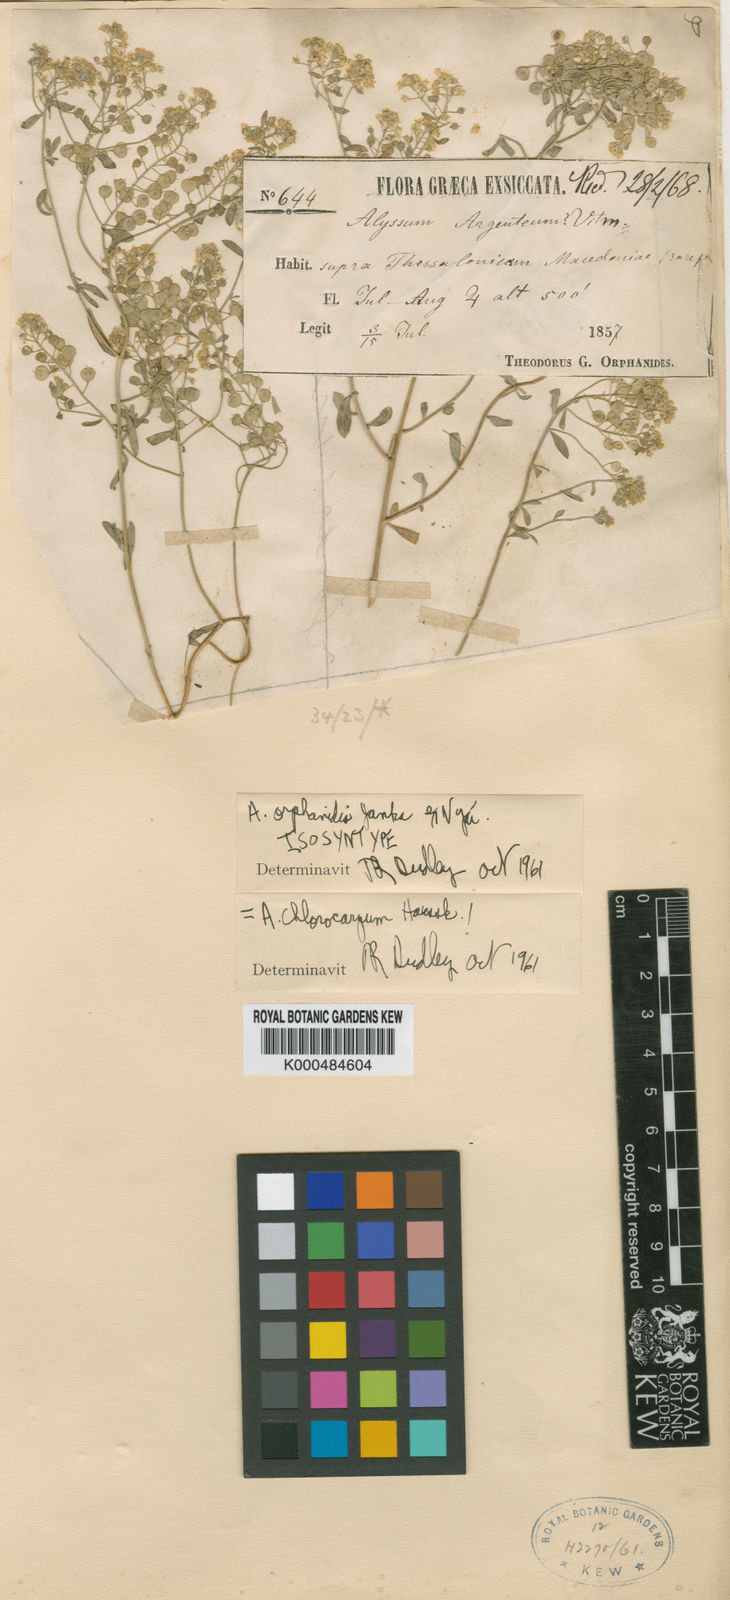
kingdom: Plantae
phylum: Tracheophyta
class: Magnoliopsida
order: Brassicales
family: Brassicaceae
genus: Odontarrhena
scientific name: Odontarrhena muralis
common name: Rock alyssum
